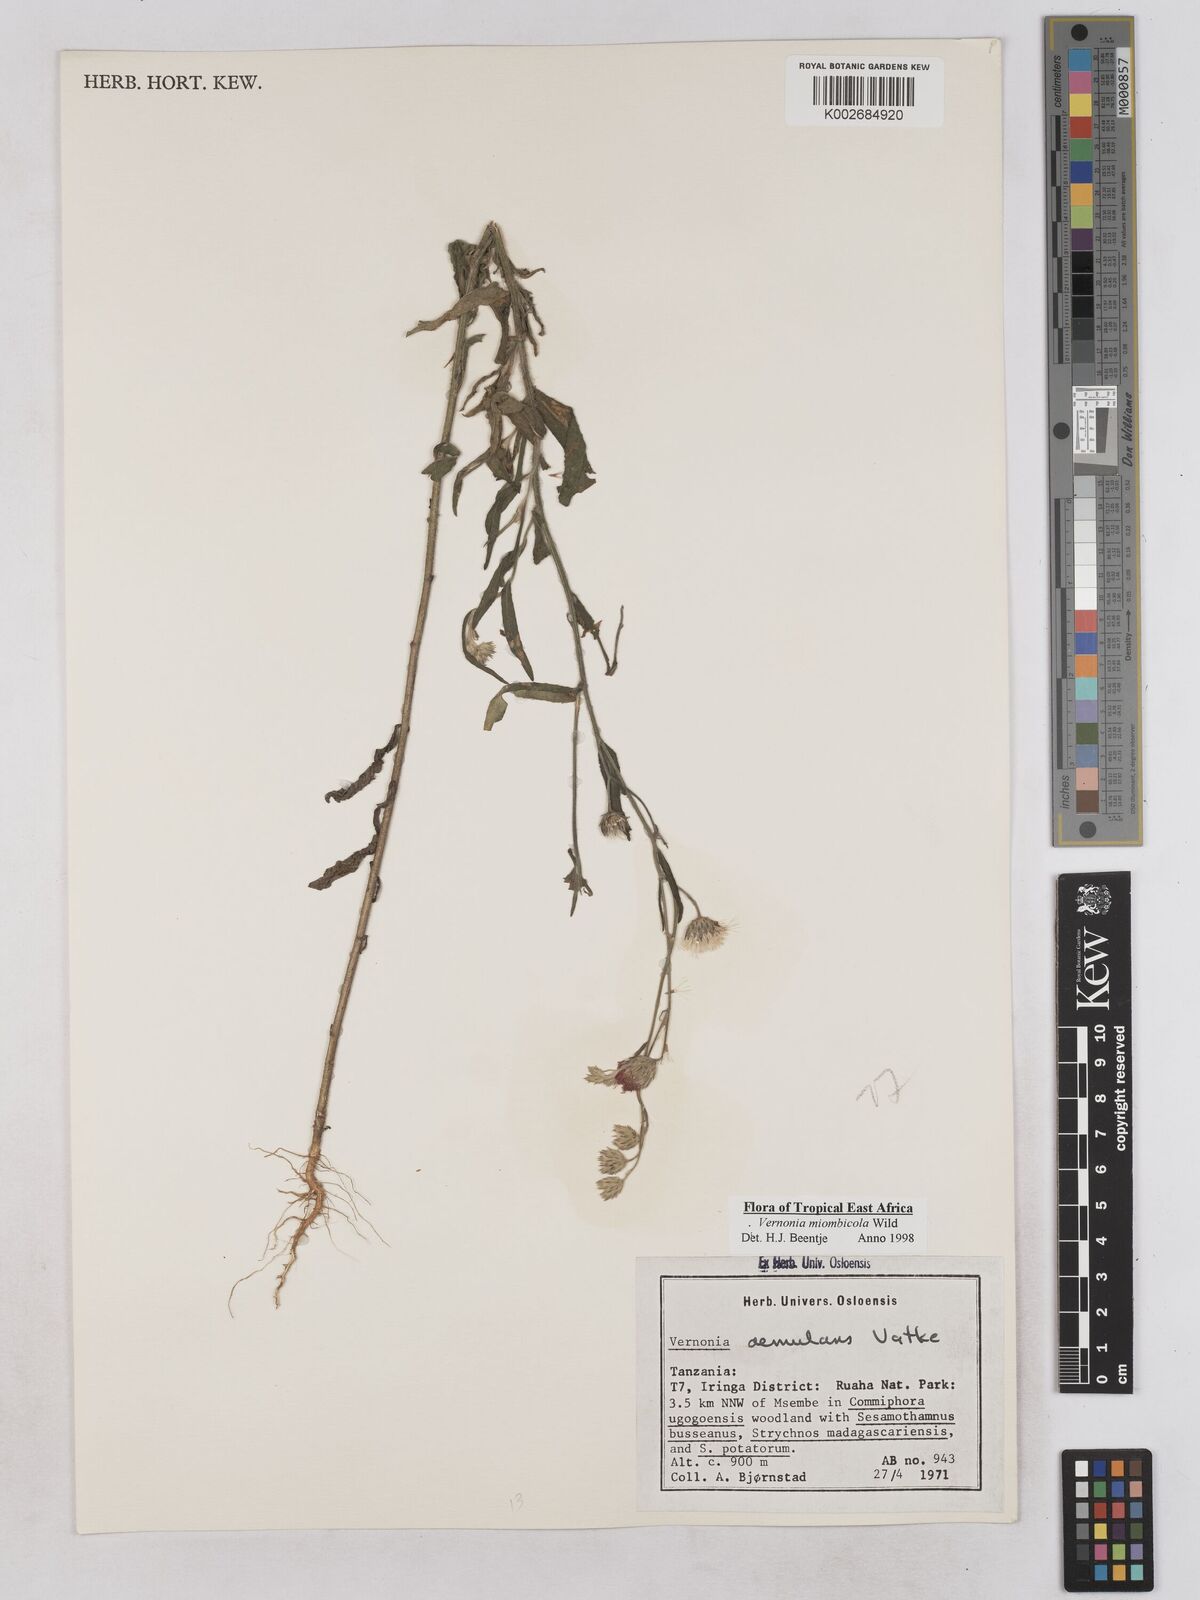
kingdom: Plantae
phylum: Tracheophyta
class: Magnoliopsida
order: Asterales
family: Asteraceae
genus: Vernonia
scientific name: Vernonia miombicola
